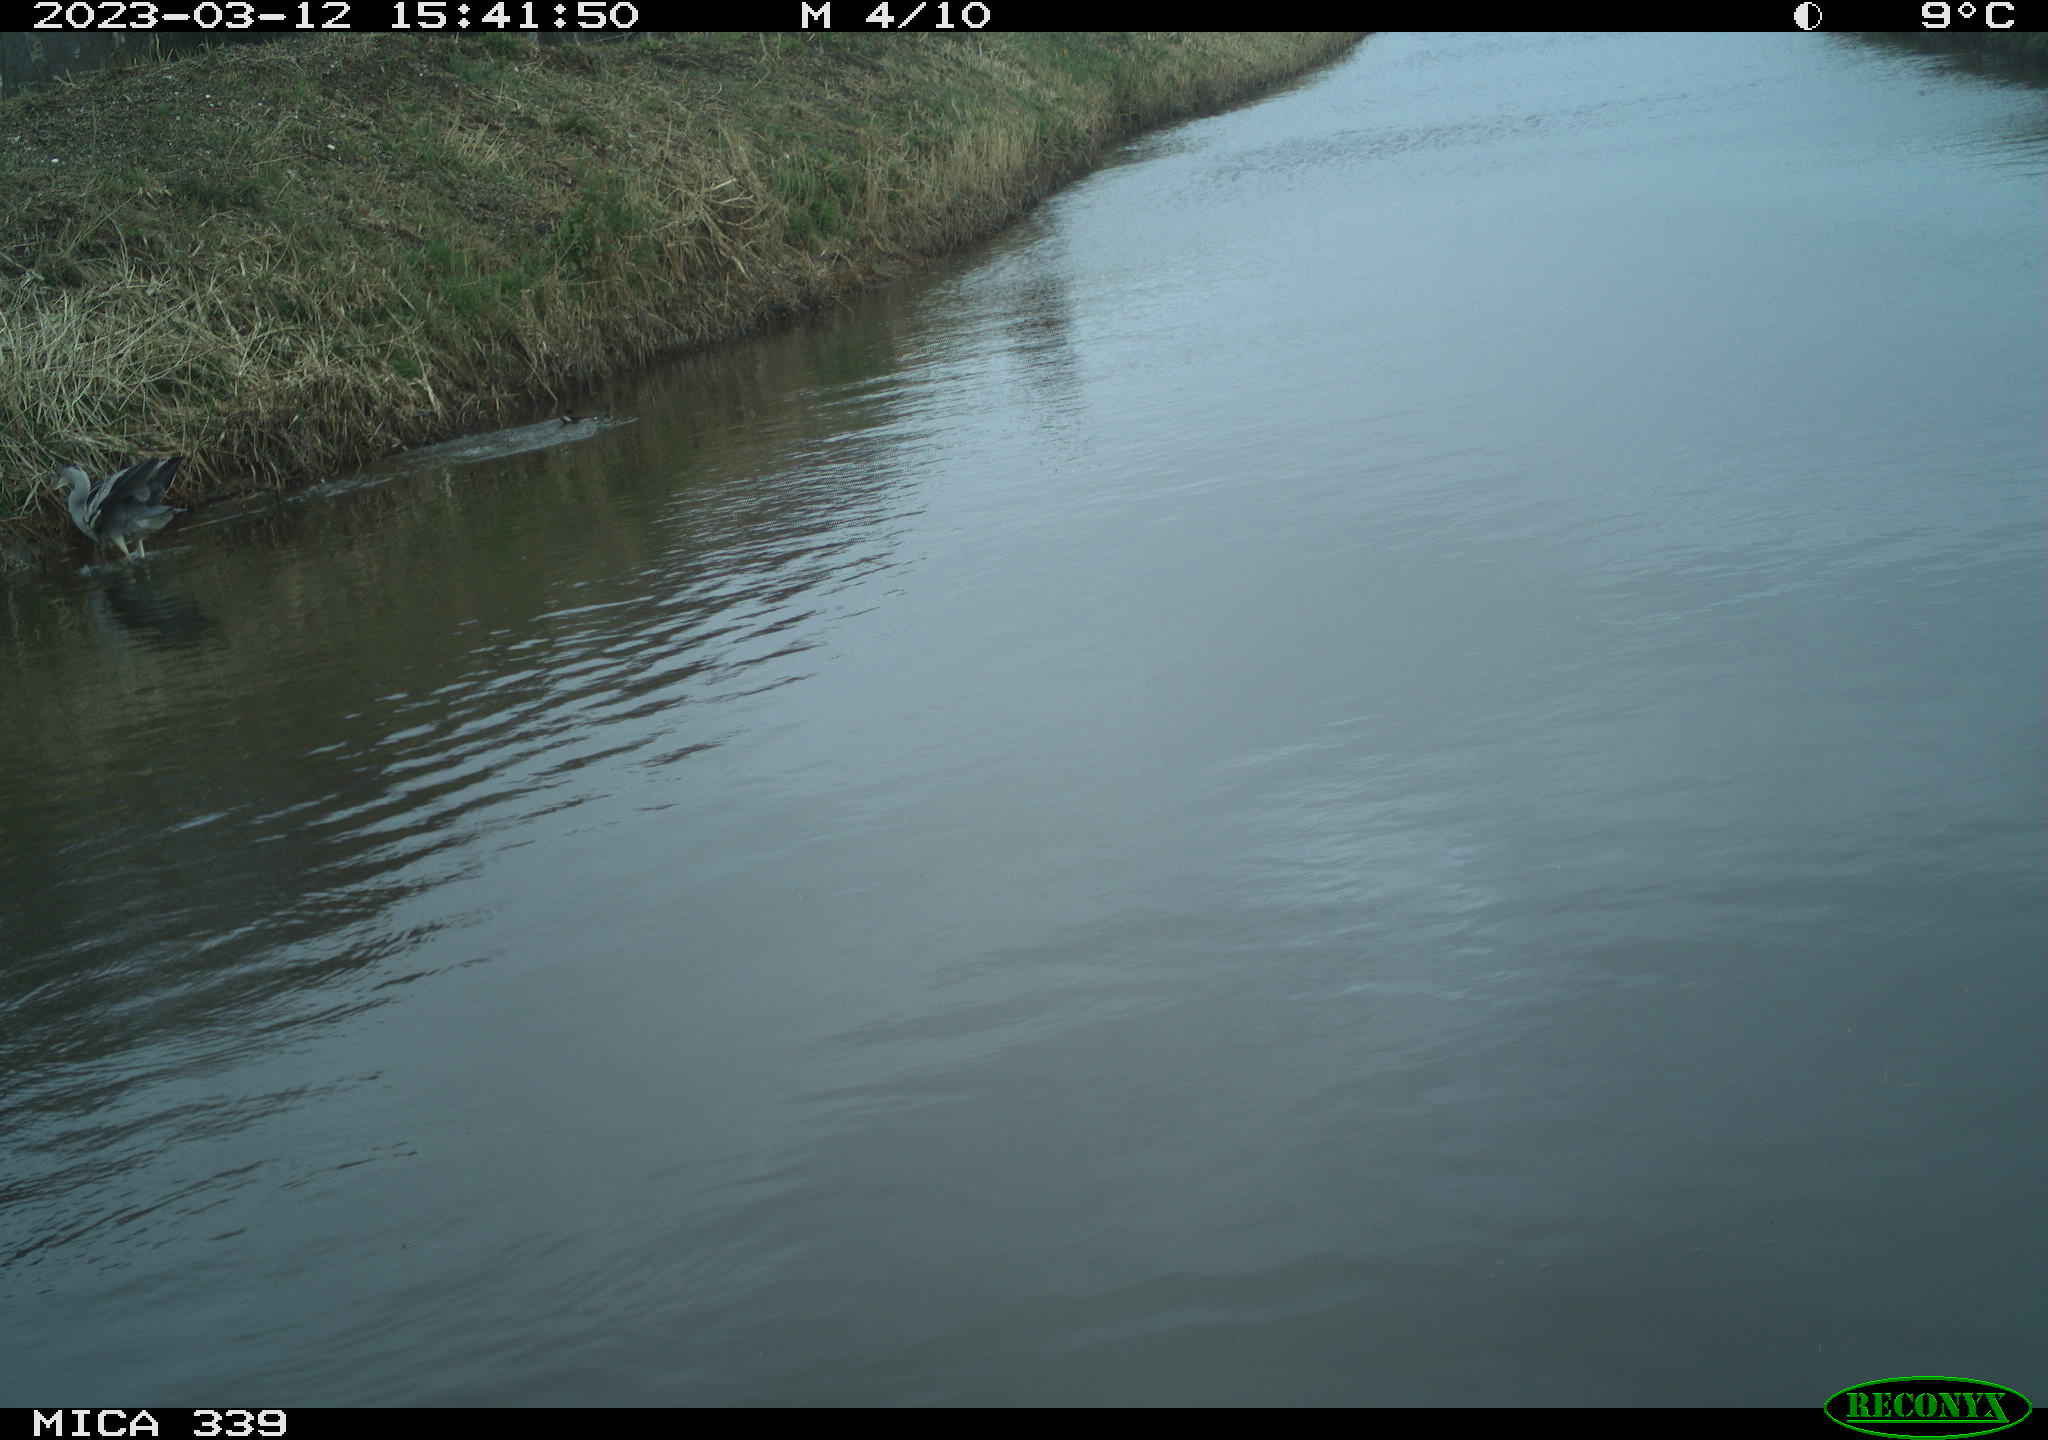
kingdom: Animalia
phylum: Chordata
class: Aves
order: Gruiformes
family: Rallidae
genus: Gallinula
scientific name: Gallinula chloropus
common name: Common moorhen
